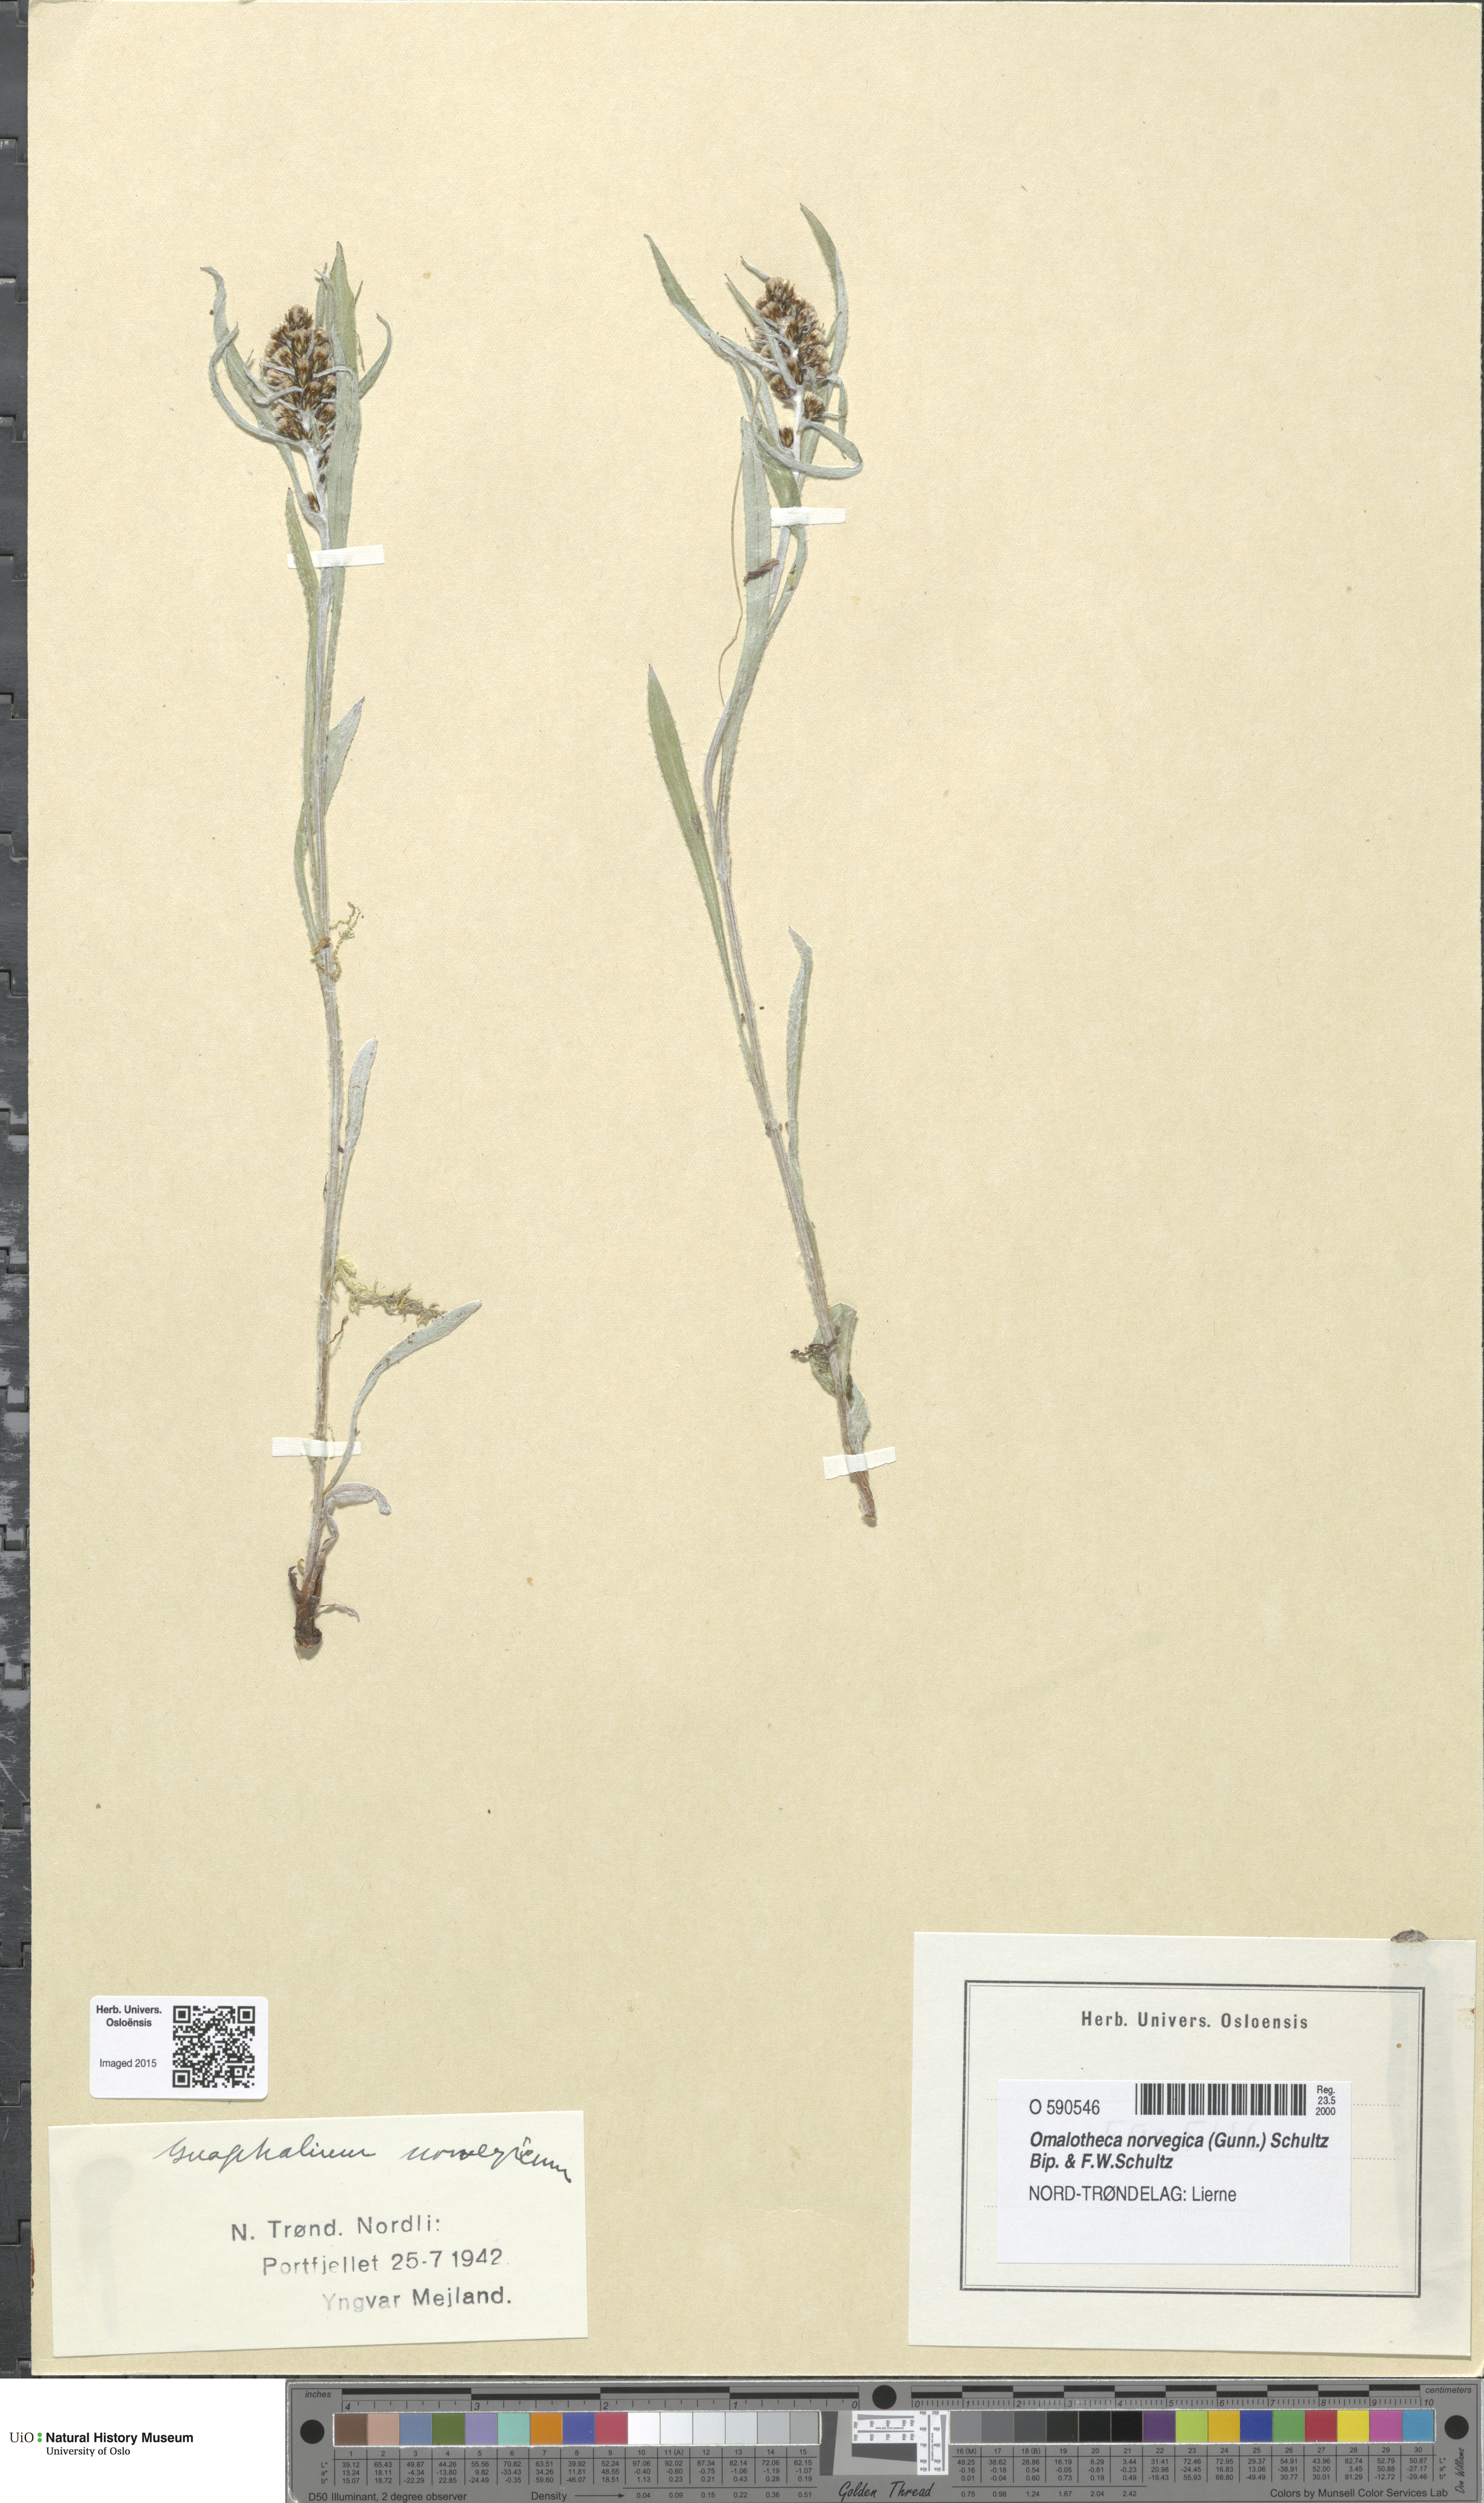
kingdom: Plantae
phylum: Tracheophyta
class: Magnoliopsida
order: Asterales
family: Asteraceae
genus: Omalotheca
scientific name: Omalotheca norvegica
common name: Norwegian arctic-cudweed
